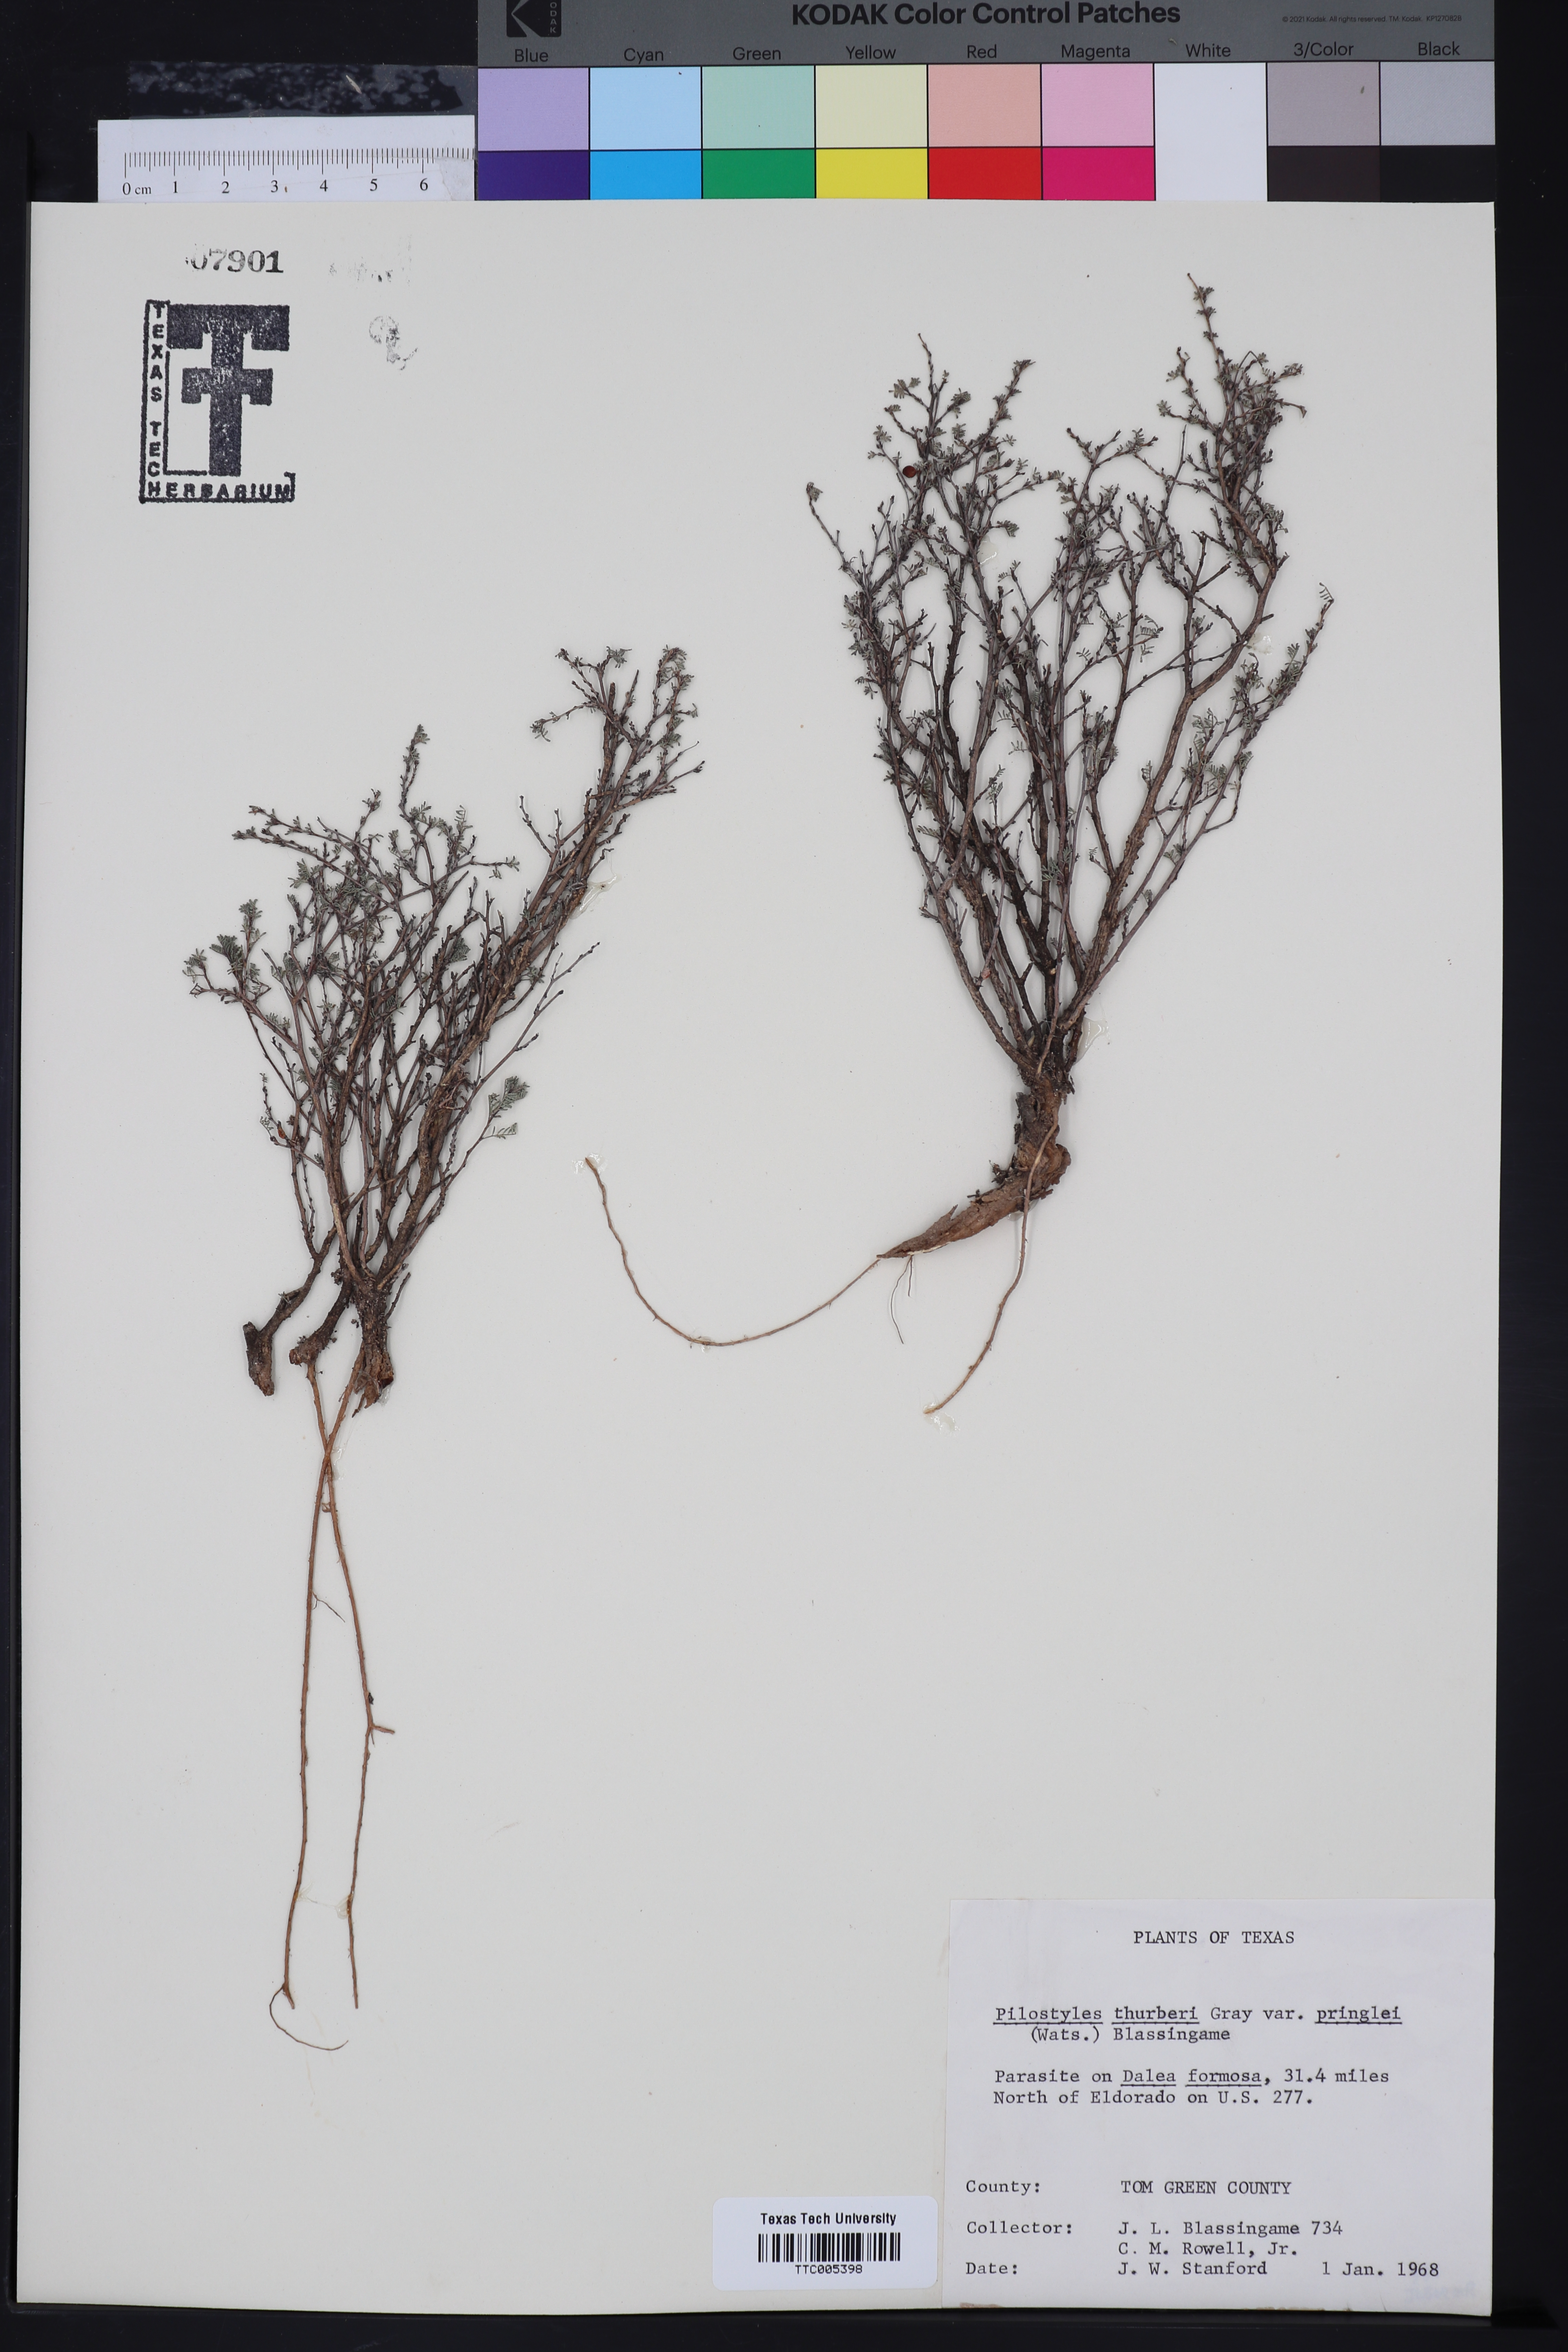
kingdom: Plantae
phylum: Tracheophyta
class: Magnoliopsida
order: Cucurbitales
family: Apodanthaceae
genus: Pilostyles
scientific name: Pilostyles thurberi
